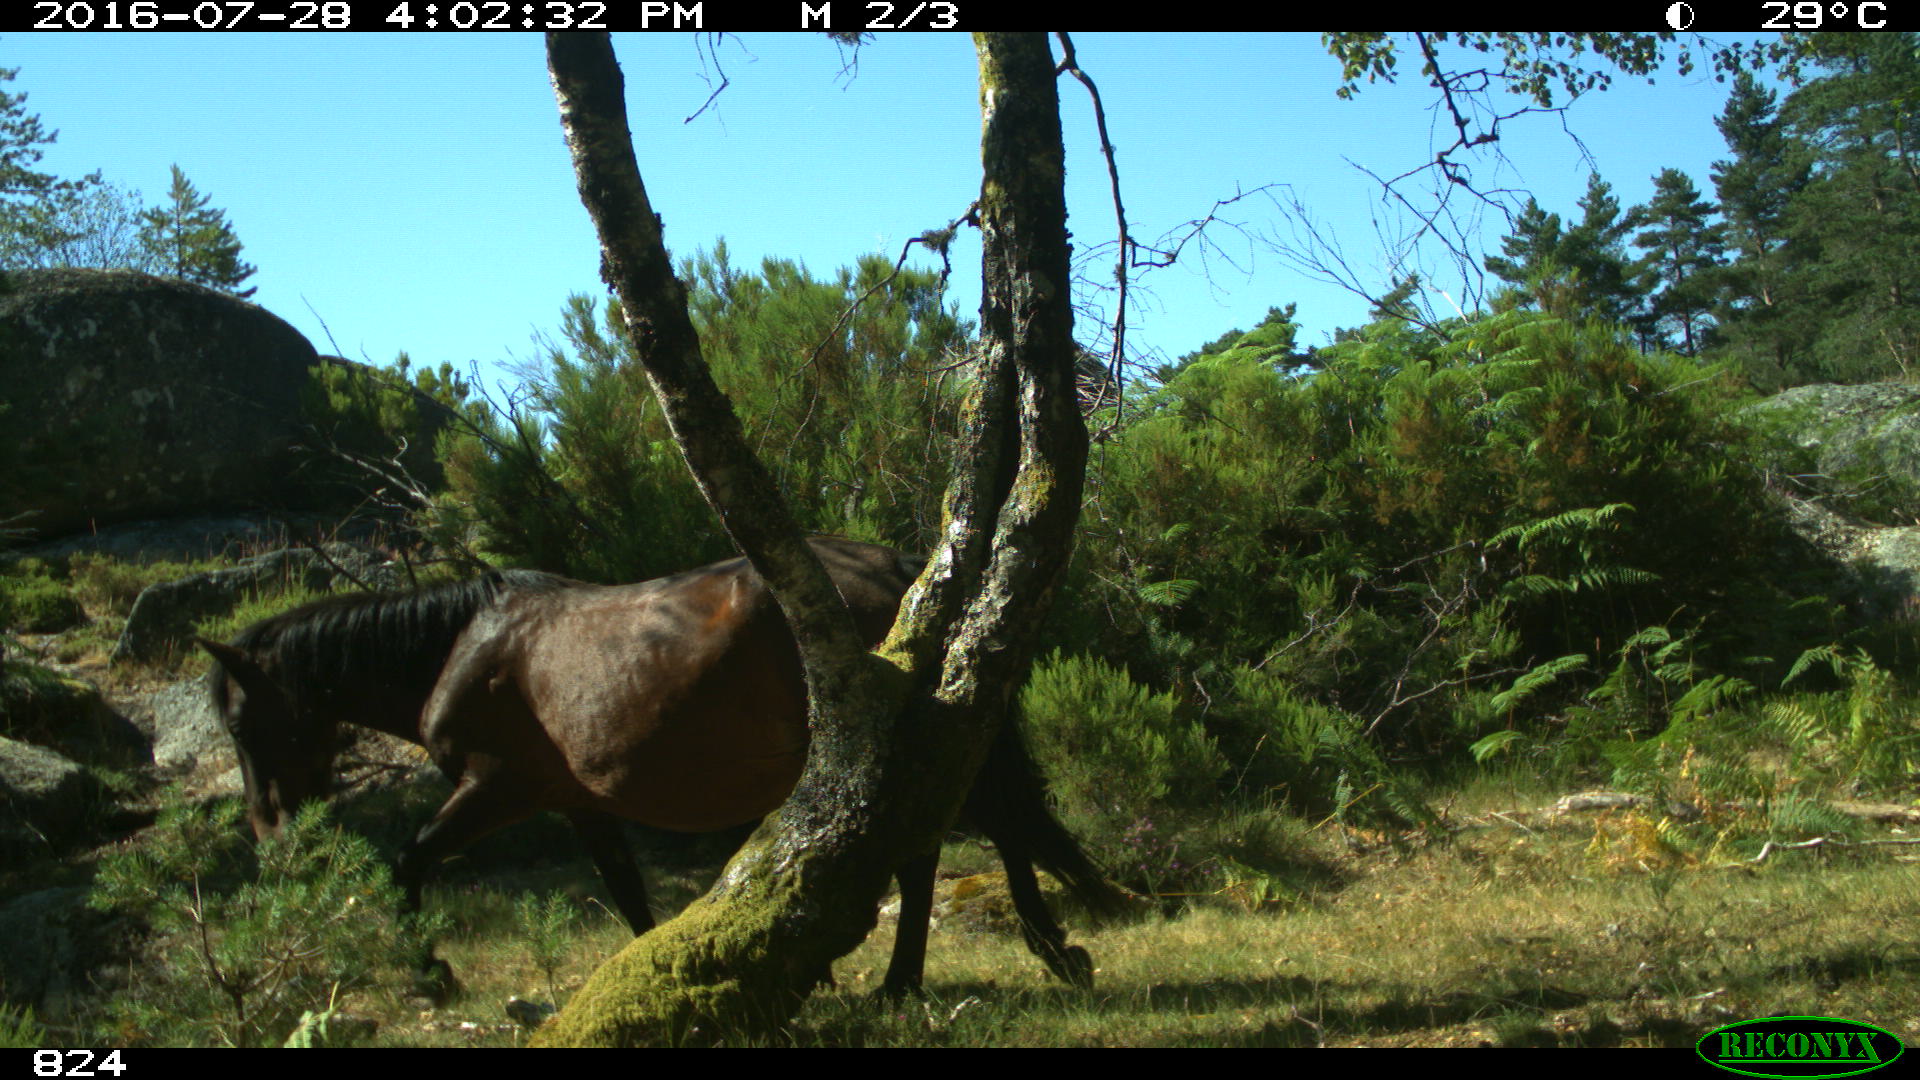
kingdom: Animalia
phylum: Chordata
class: Mammalia
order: Perissodactyla
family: Equidae
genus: Equus
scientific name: Equus caballus
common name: Horse
